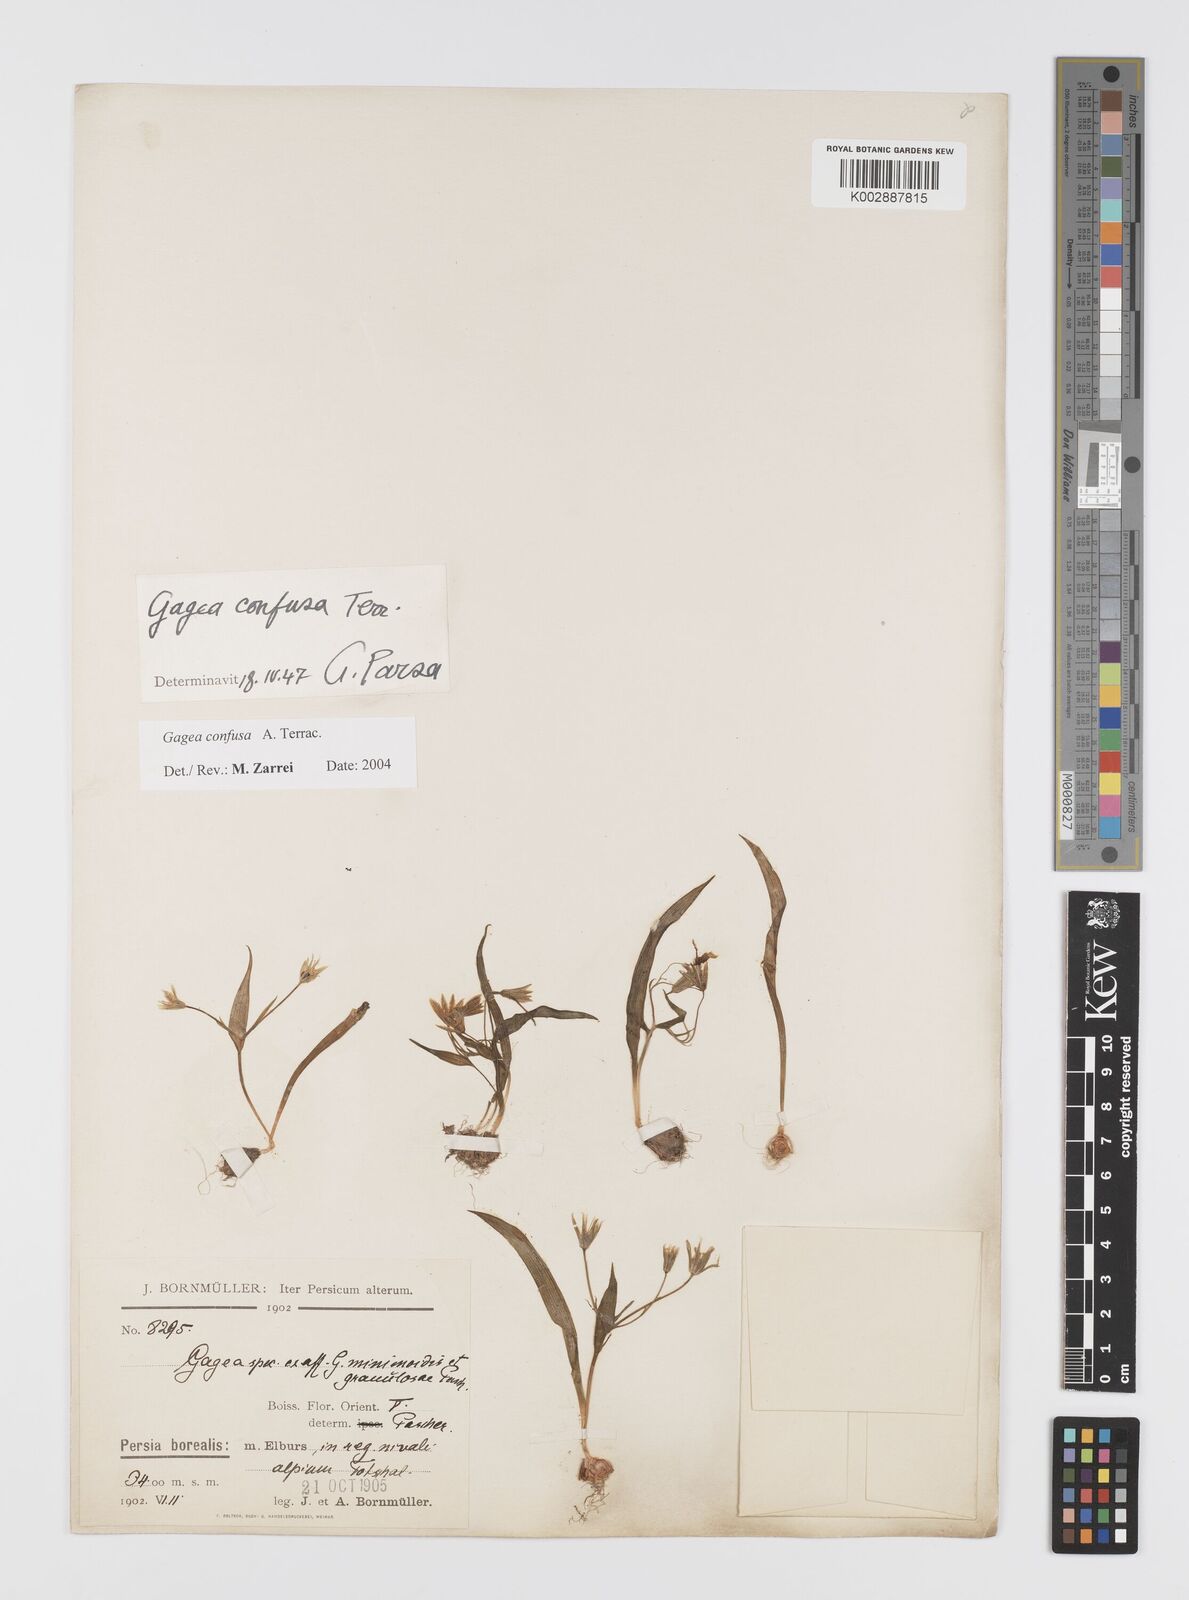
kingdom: Plantae
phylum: Tracheophyta
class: Liliopsida
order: Liliales
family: Liliaceae
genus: Gagea
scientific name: Gagea confusa
